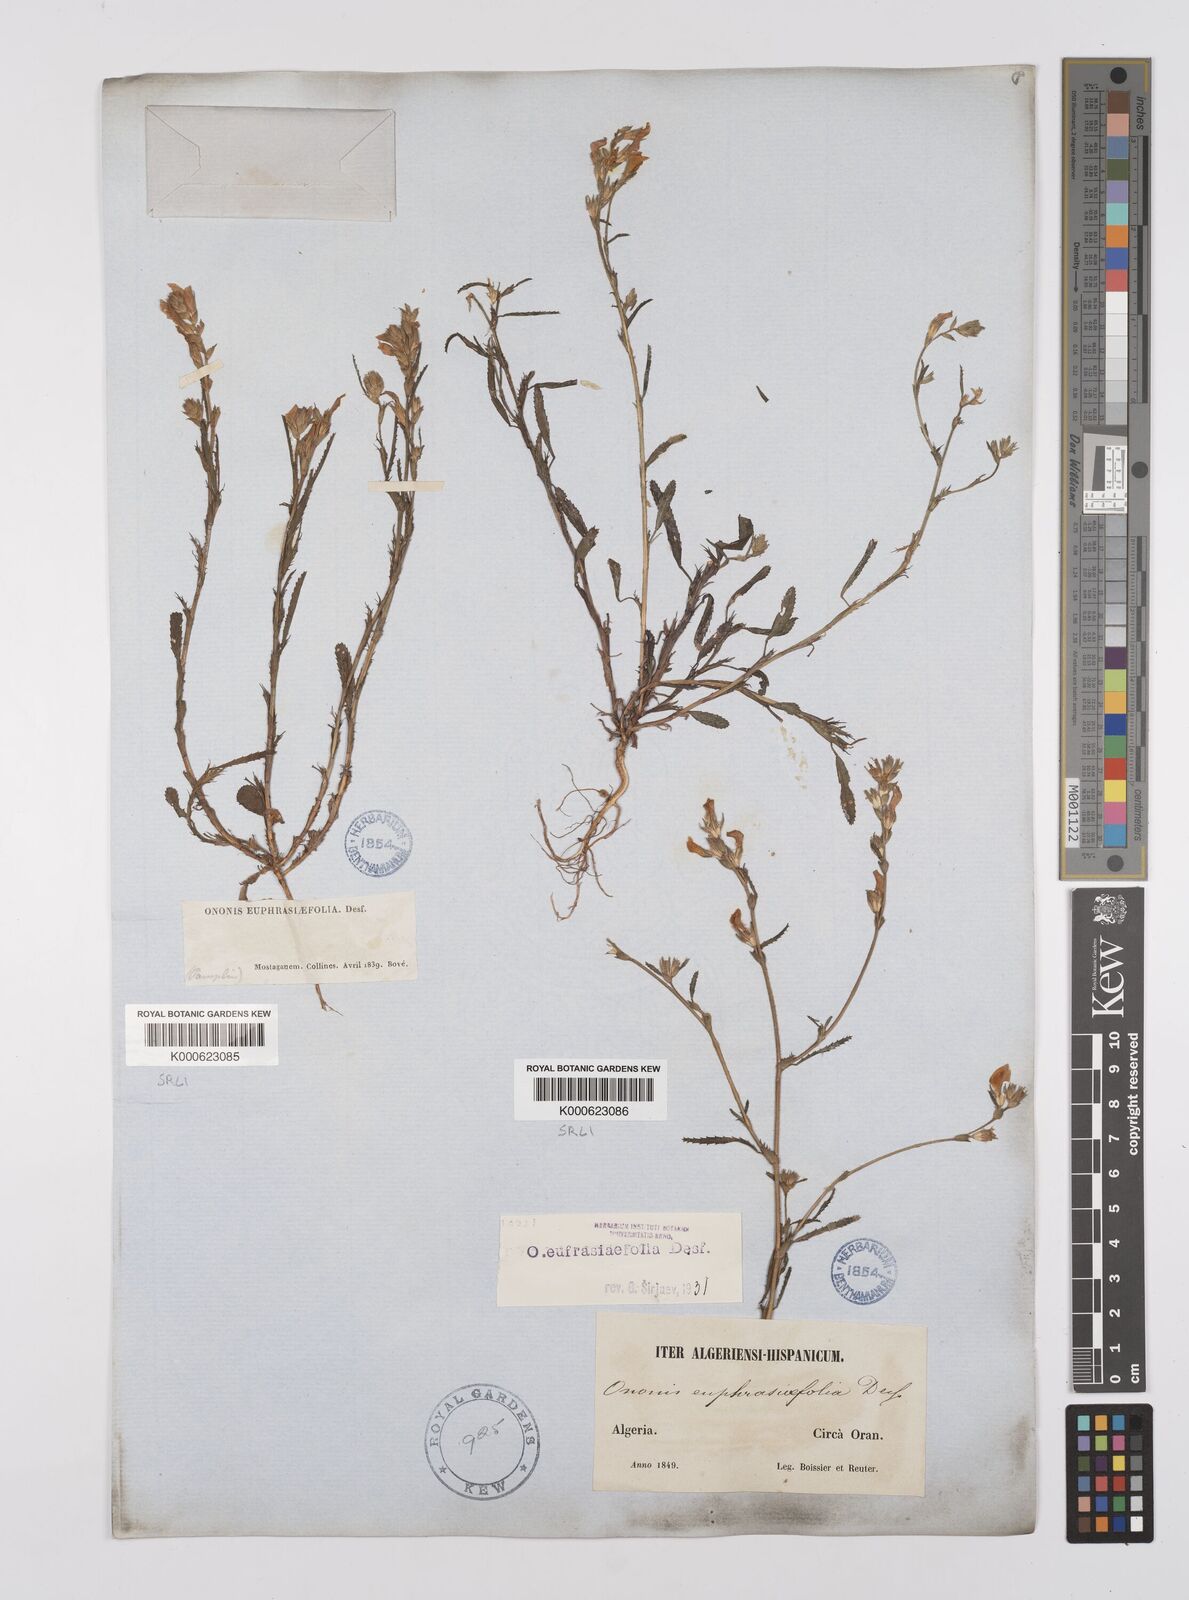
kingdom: Plantae
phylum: Tracheophyta
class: Magnoliopsida
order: Fabales
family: Fabaceae
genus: Ononis
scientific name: Ononis
